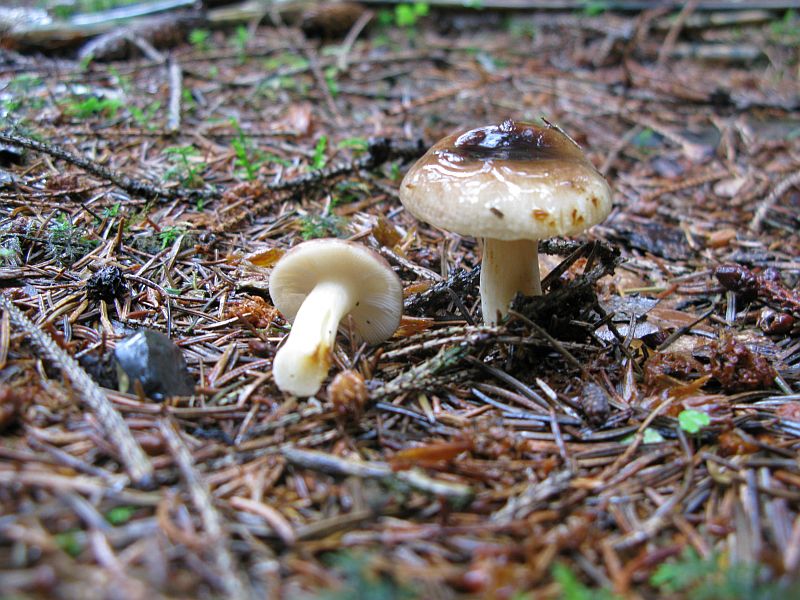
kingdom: Fungi
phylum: Basidiomycota
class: Agaricomycetes
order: Russulales
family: Russulaceae
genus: Russula
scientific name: Russula puellaris
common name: gulstokket skørhat
